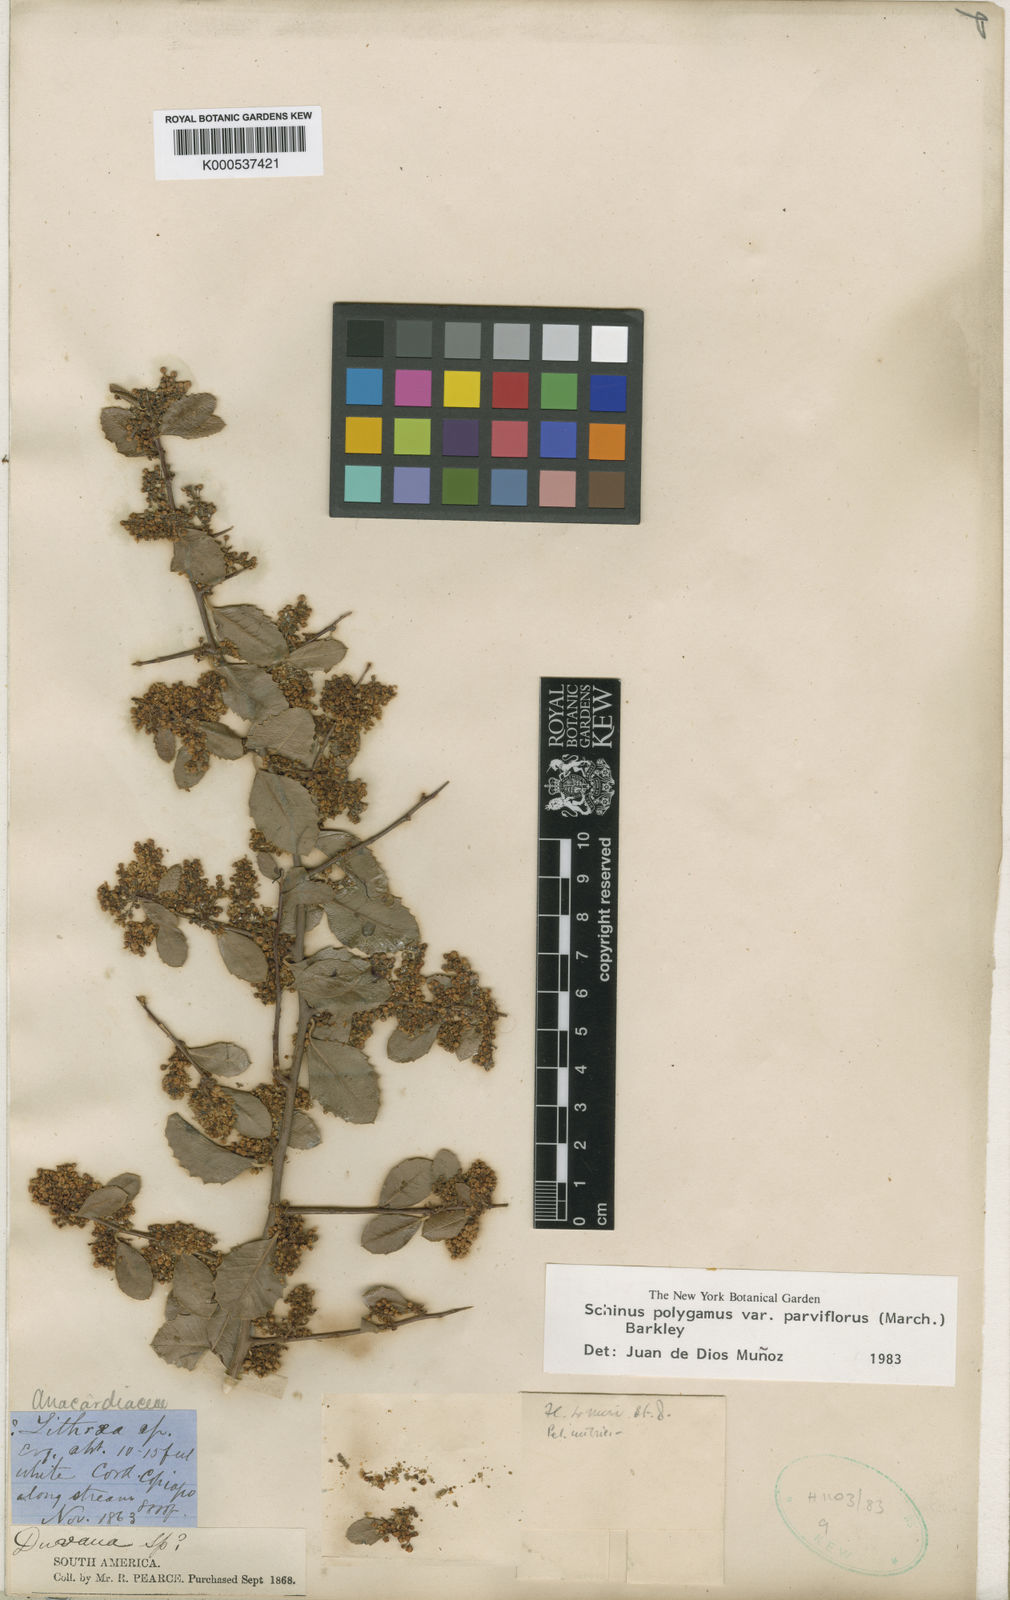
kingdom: Plantae
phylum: Tracheophyta
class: Magnoliopsida
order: Sapindales
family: Anacardiaceae
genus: Schinus
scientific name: Schinus polygama
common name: Hardee peppertree
